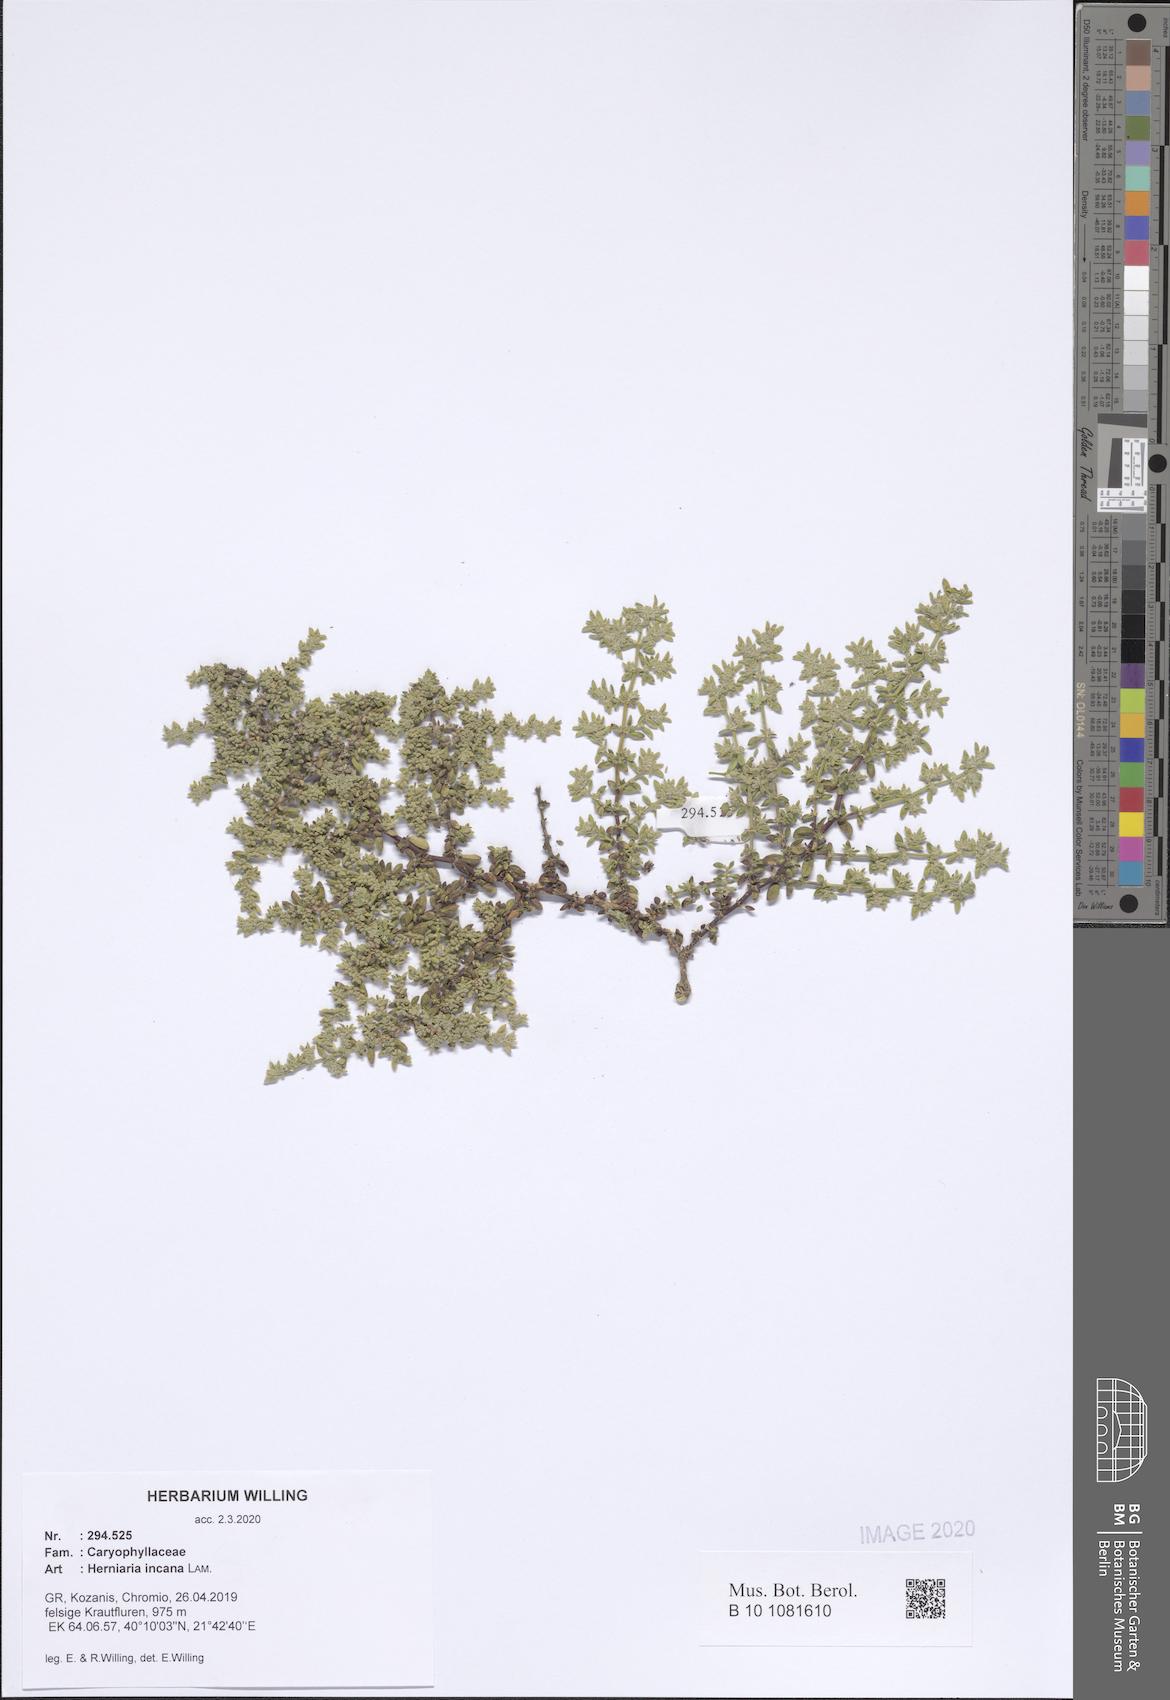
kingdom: Plantae
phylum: Tracheophyta
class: Magnoliopsida
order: Caryophyllales
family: Caryophyllaceae
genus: Herniaria
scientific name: Herniaria incana
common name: Gray rupturewort
